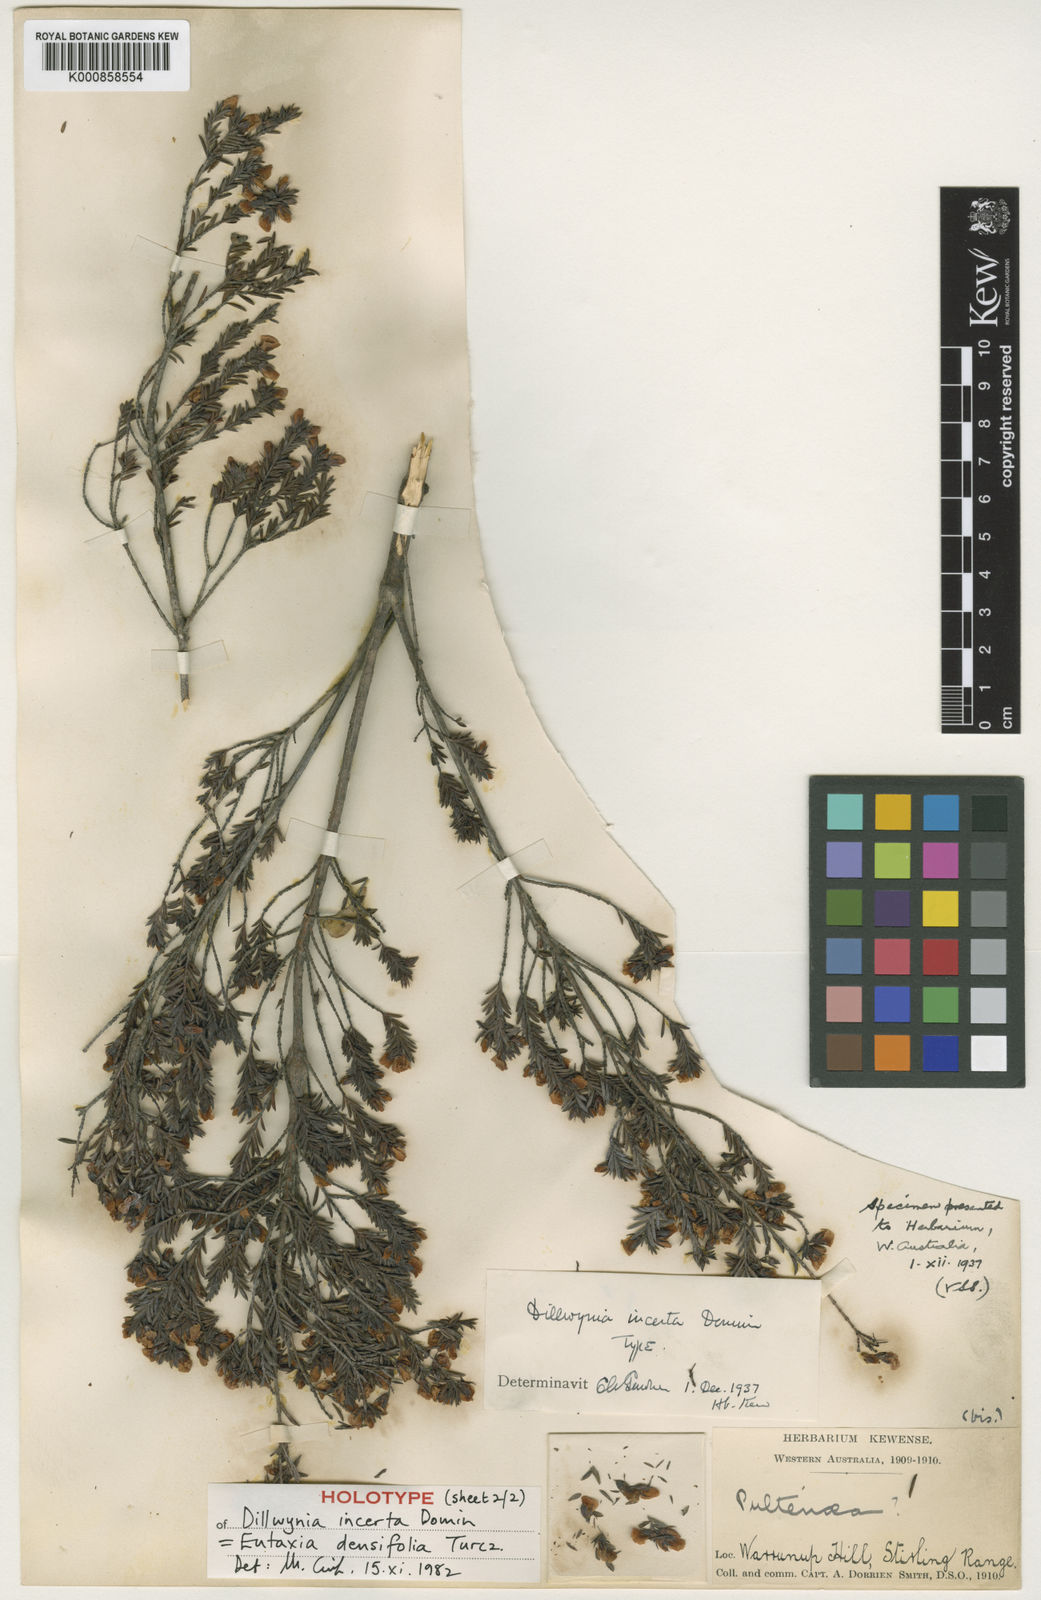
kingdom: Plantae
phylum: Tracheophyta
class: Magnoliopsida
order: Fabales
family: Fabaceae
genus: Eutaxia
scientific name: Eutaxia parvifolia
